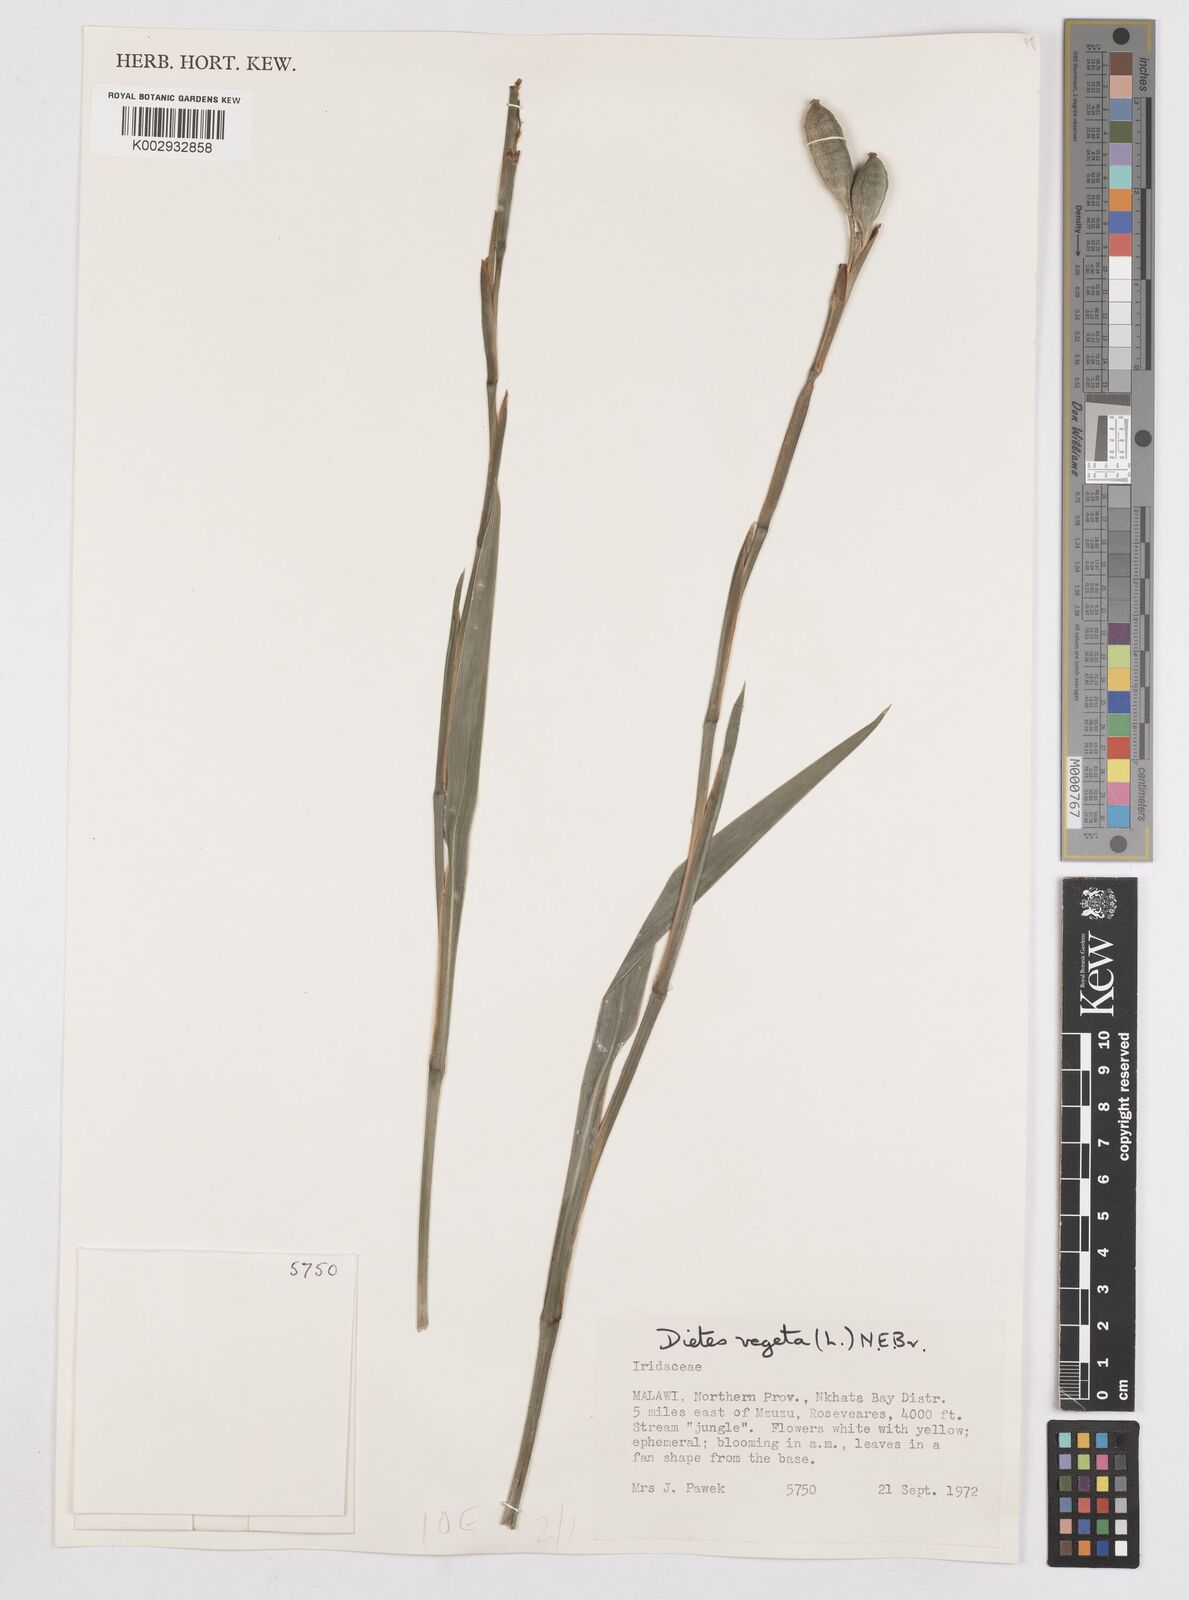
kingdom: Plantae
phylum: Tracheophyta
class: Liliopsida
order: Asparagales
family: Iridaceae
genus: Dietes
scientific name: Dietes iridioides
